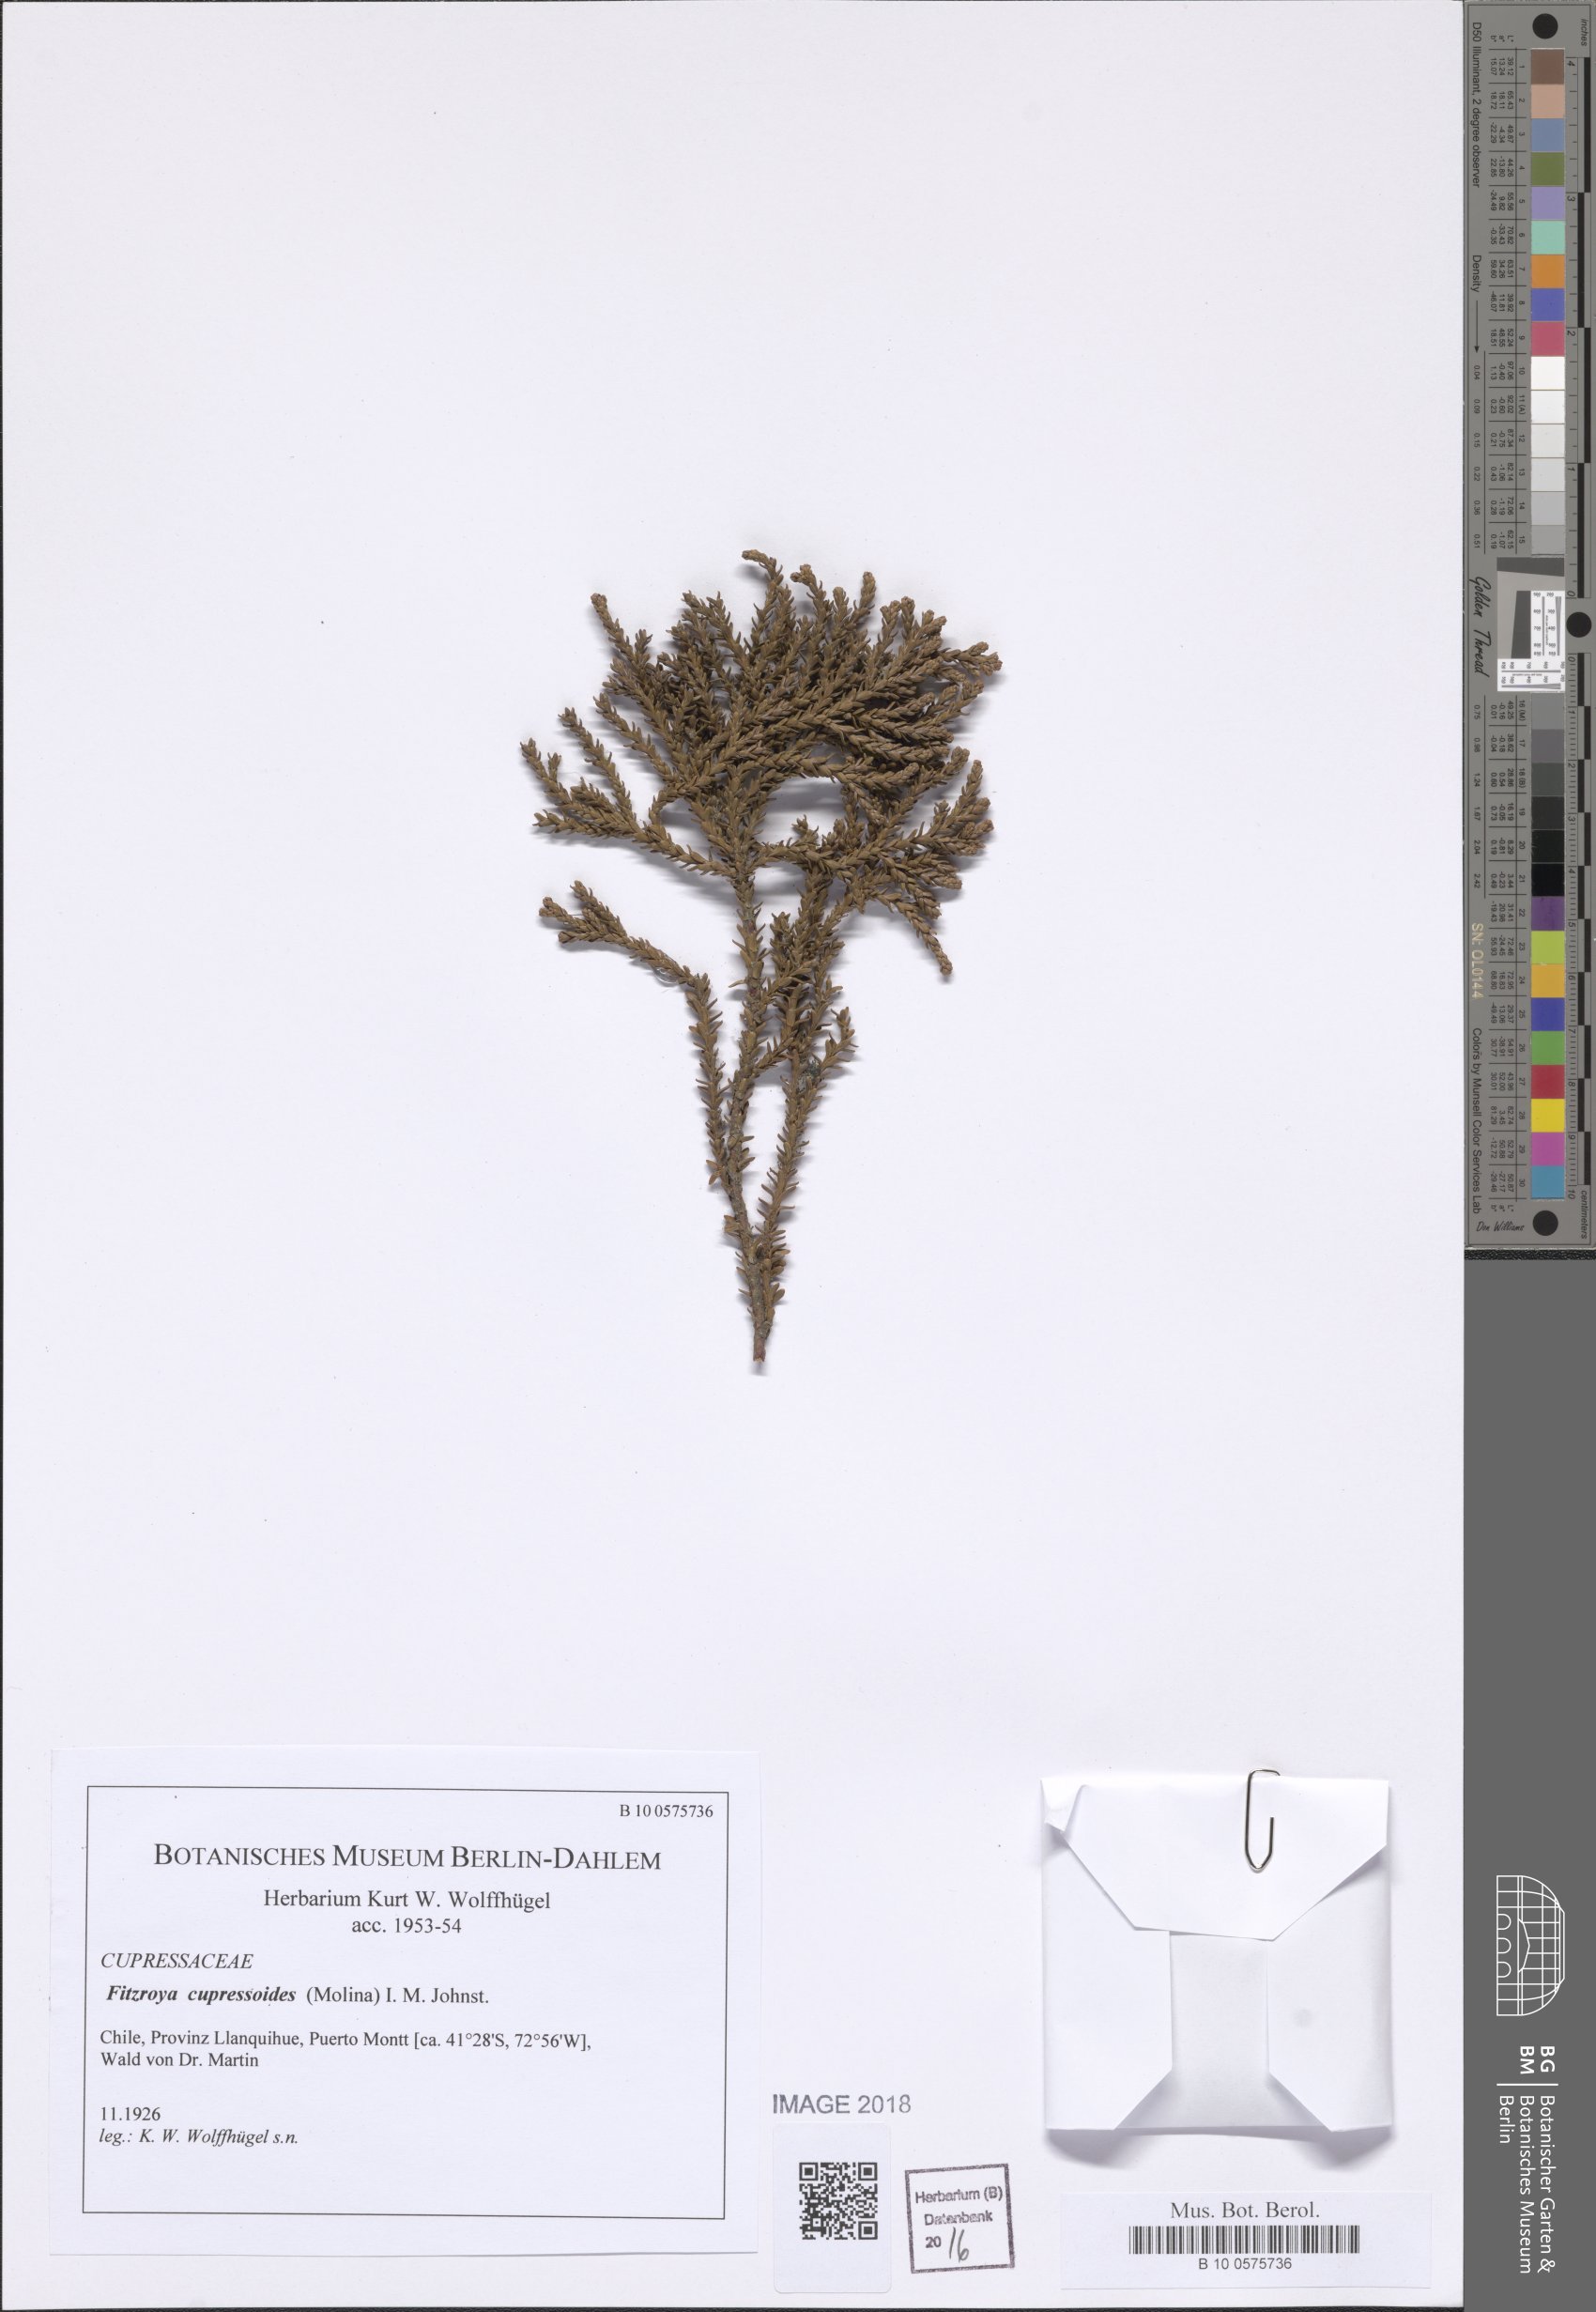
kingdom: Plantae
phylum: Tracheophyta
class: Pinopsida
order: Pinales
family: Cupressaceae
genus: Fitzroya
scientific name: Fitzroya cupressoides
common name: Patagonian cypress
